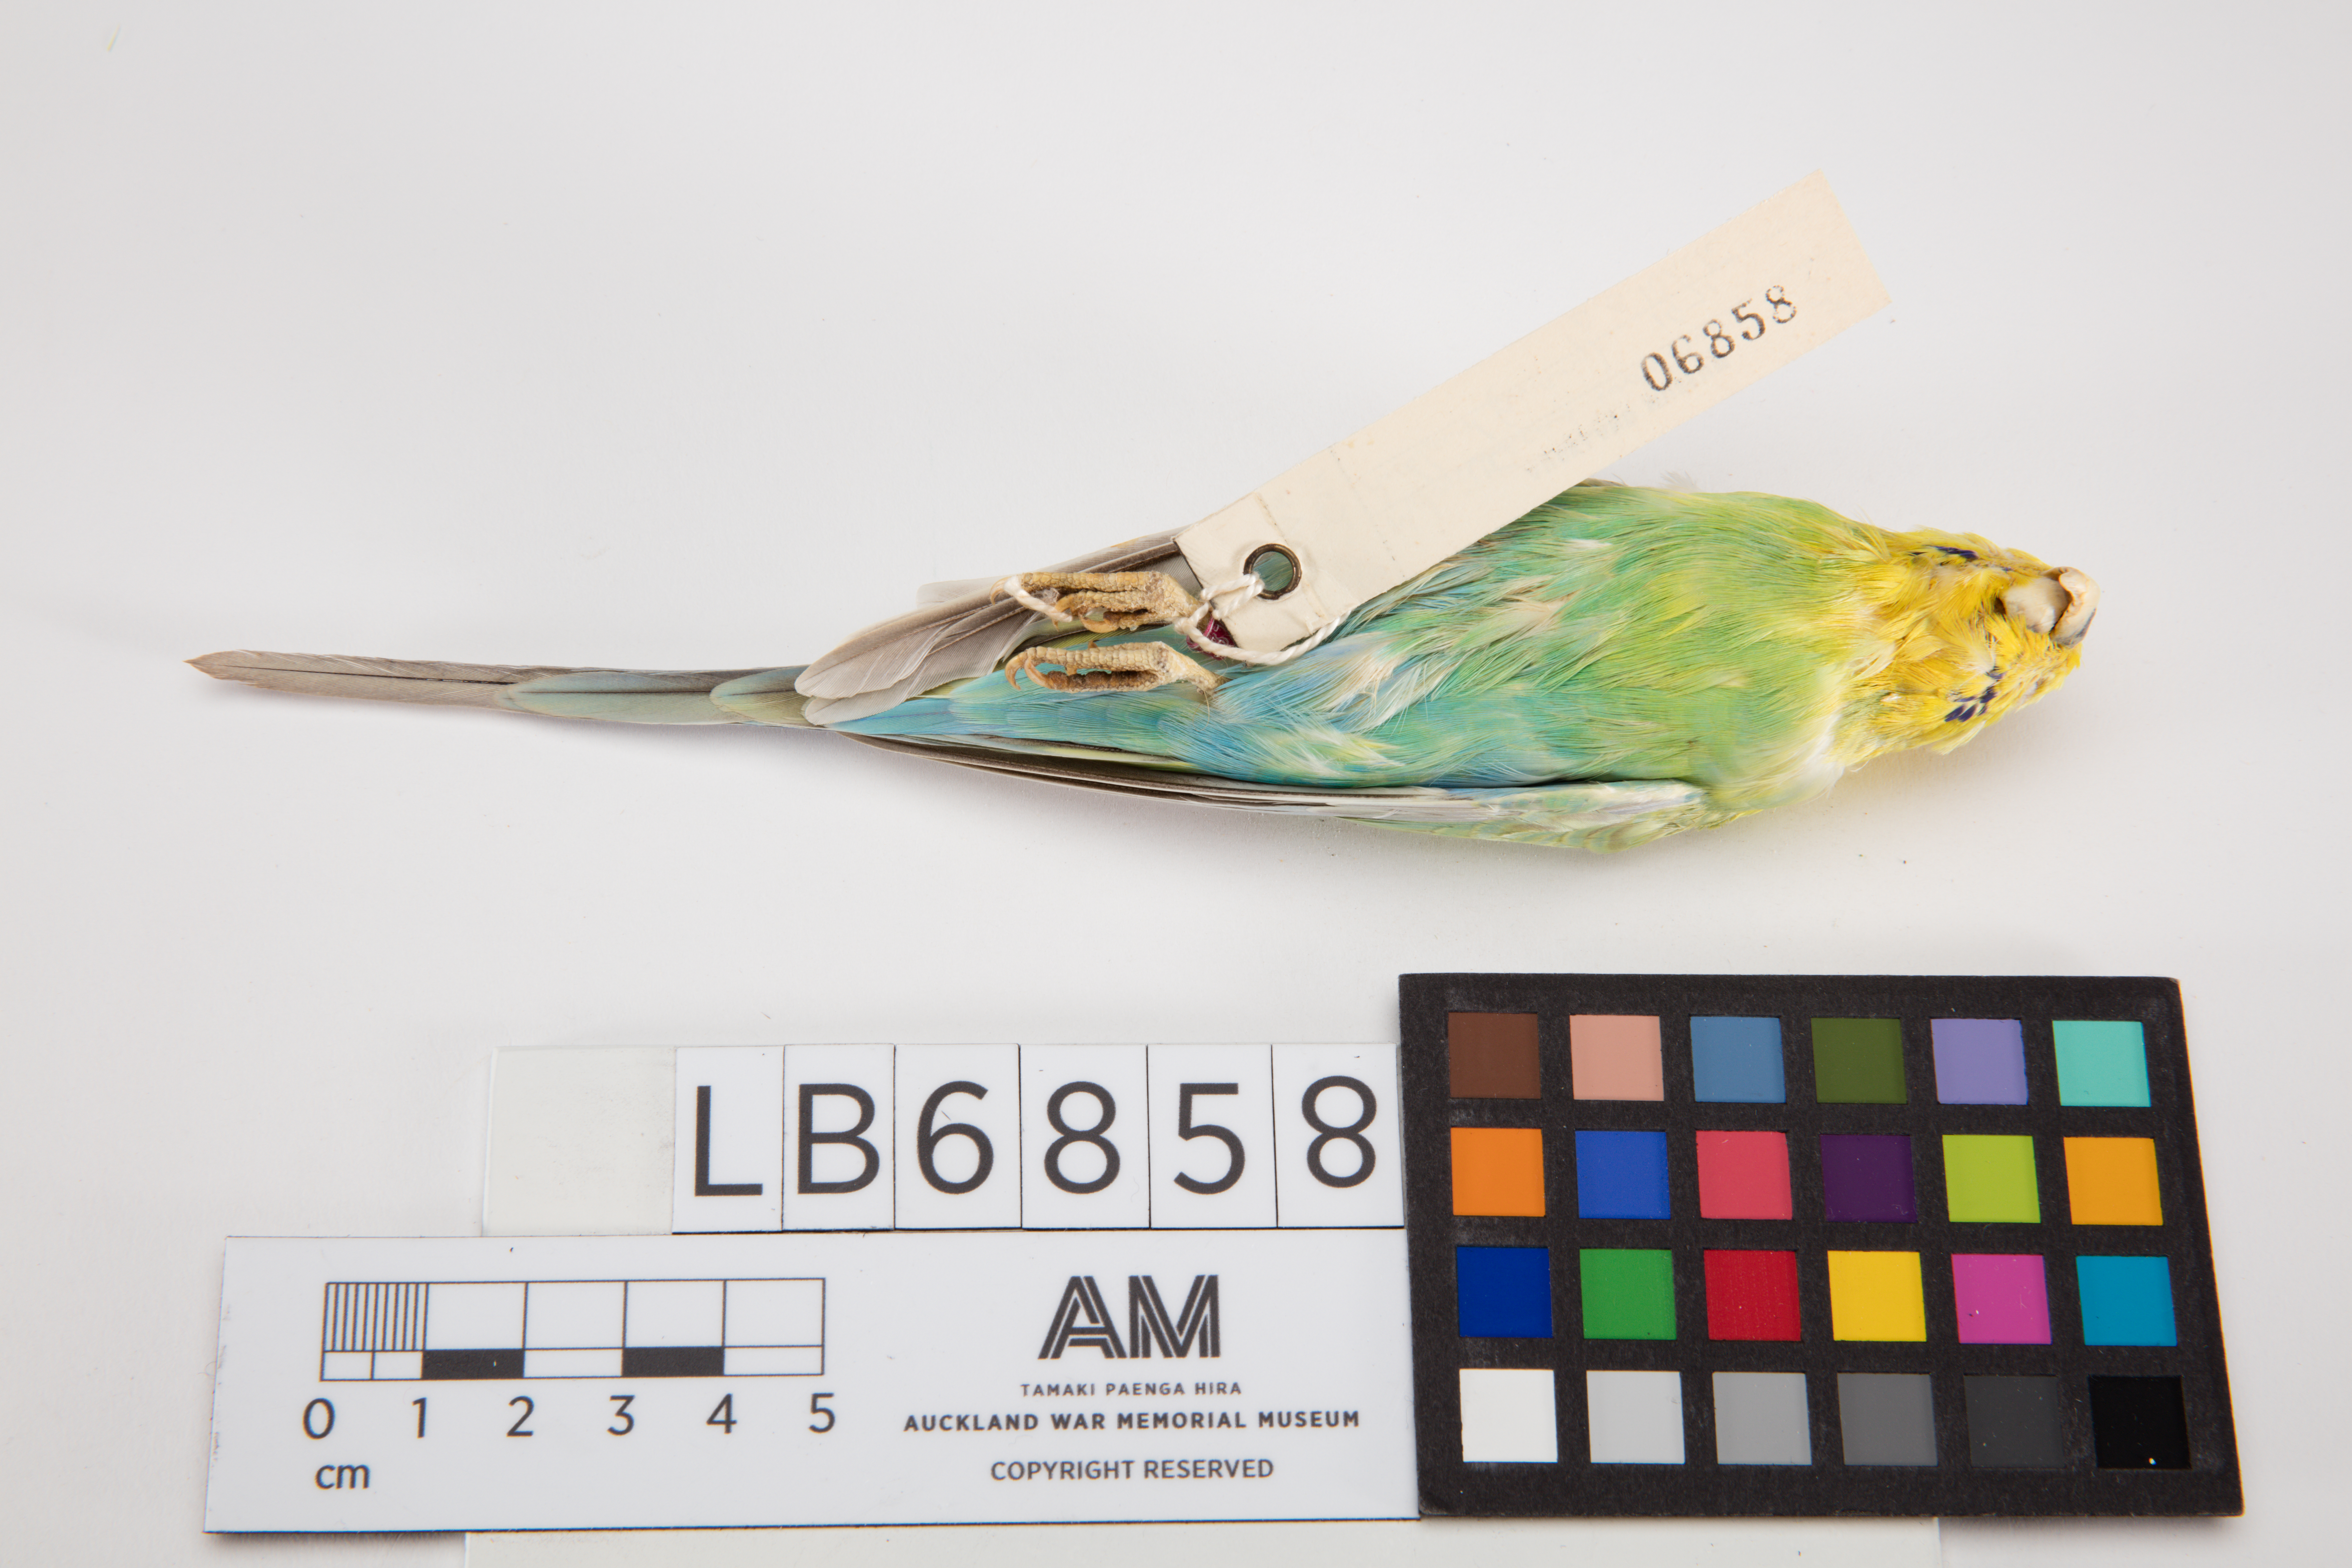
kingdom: Animalia
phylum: Chordata
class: Aves
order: Psittaciformes
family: Psittacidae
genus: Melopsittacus
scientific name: Melopsittacus undulatus
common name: Budgerigar
